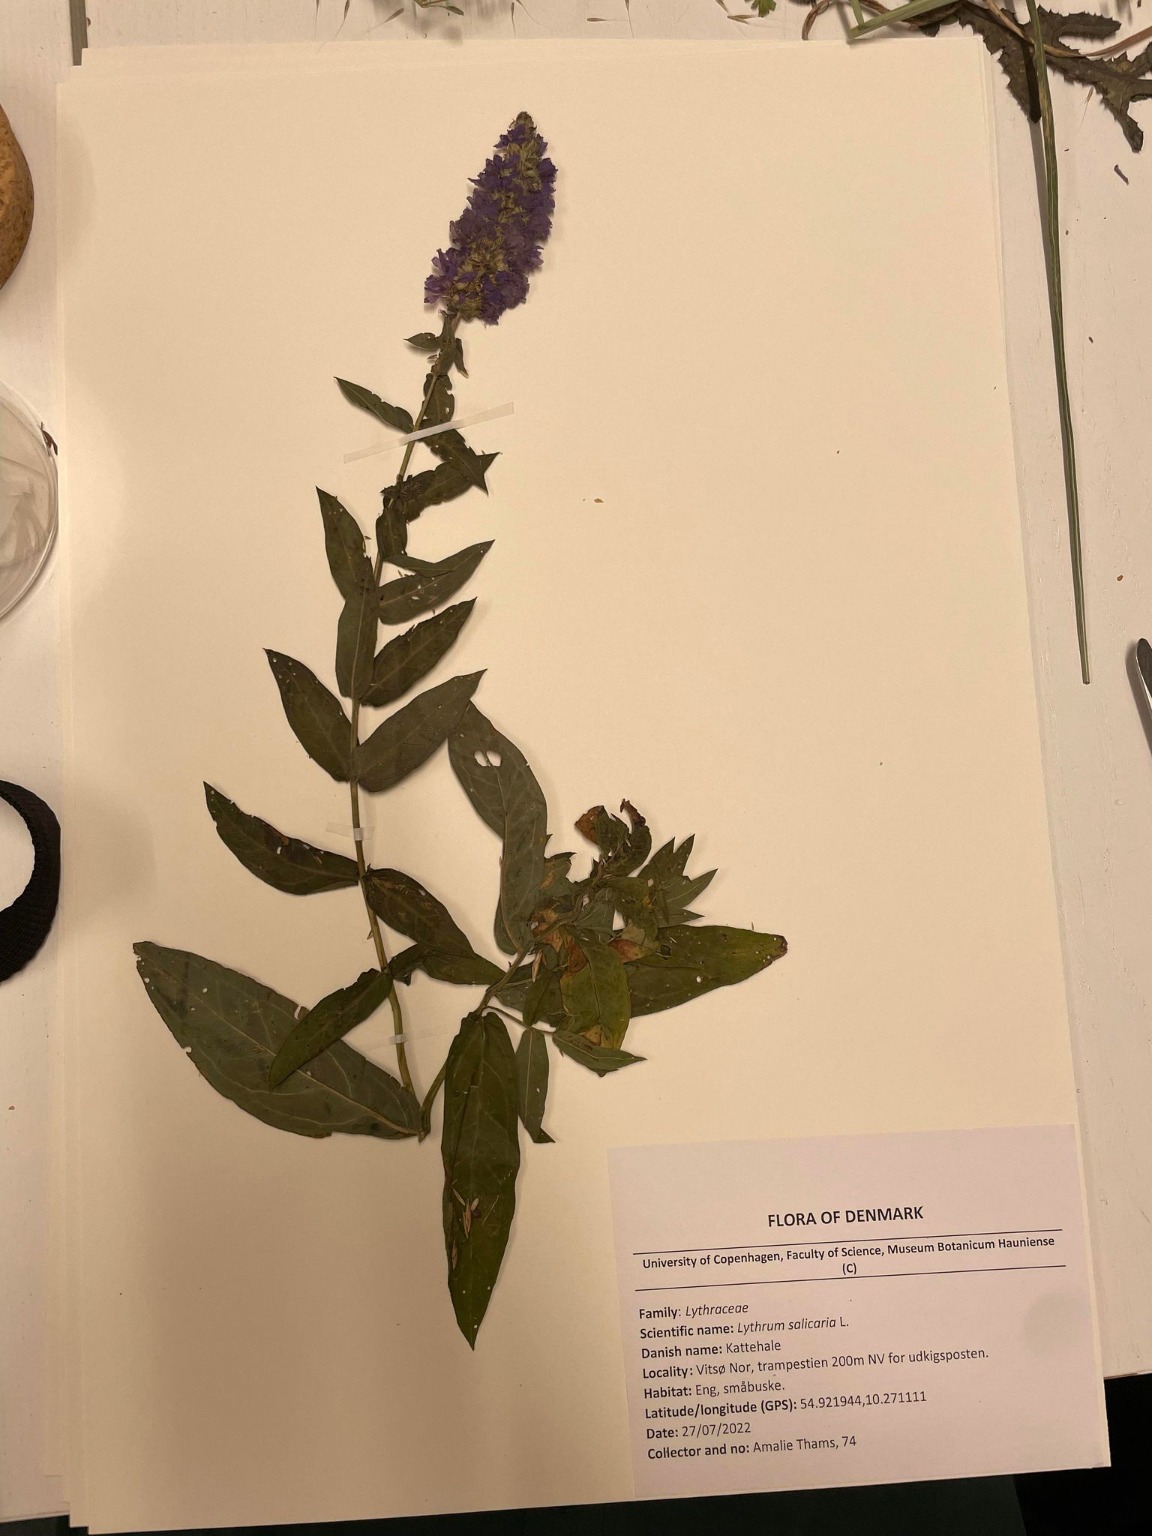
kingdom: Plantae
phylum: Tracheophyta
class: Magnoliopsida
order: Myrtales
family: Lythraceae
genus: Lythrum
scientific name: Lythrum salicaria
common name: Kattehale
